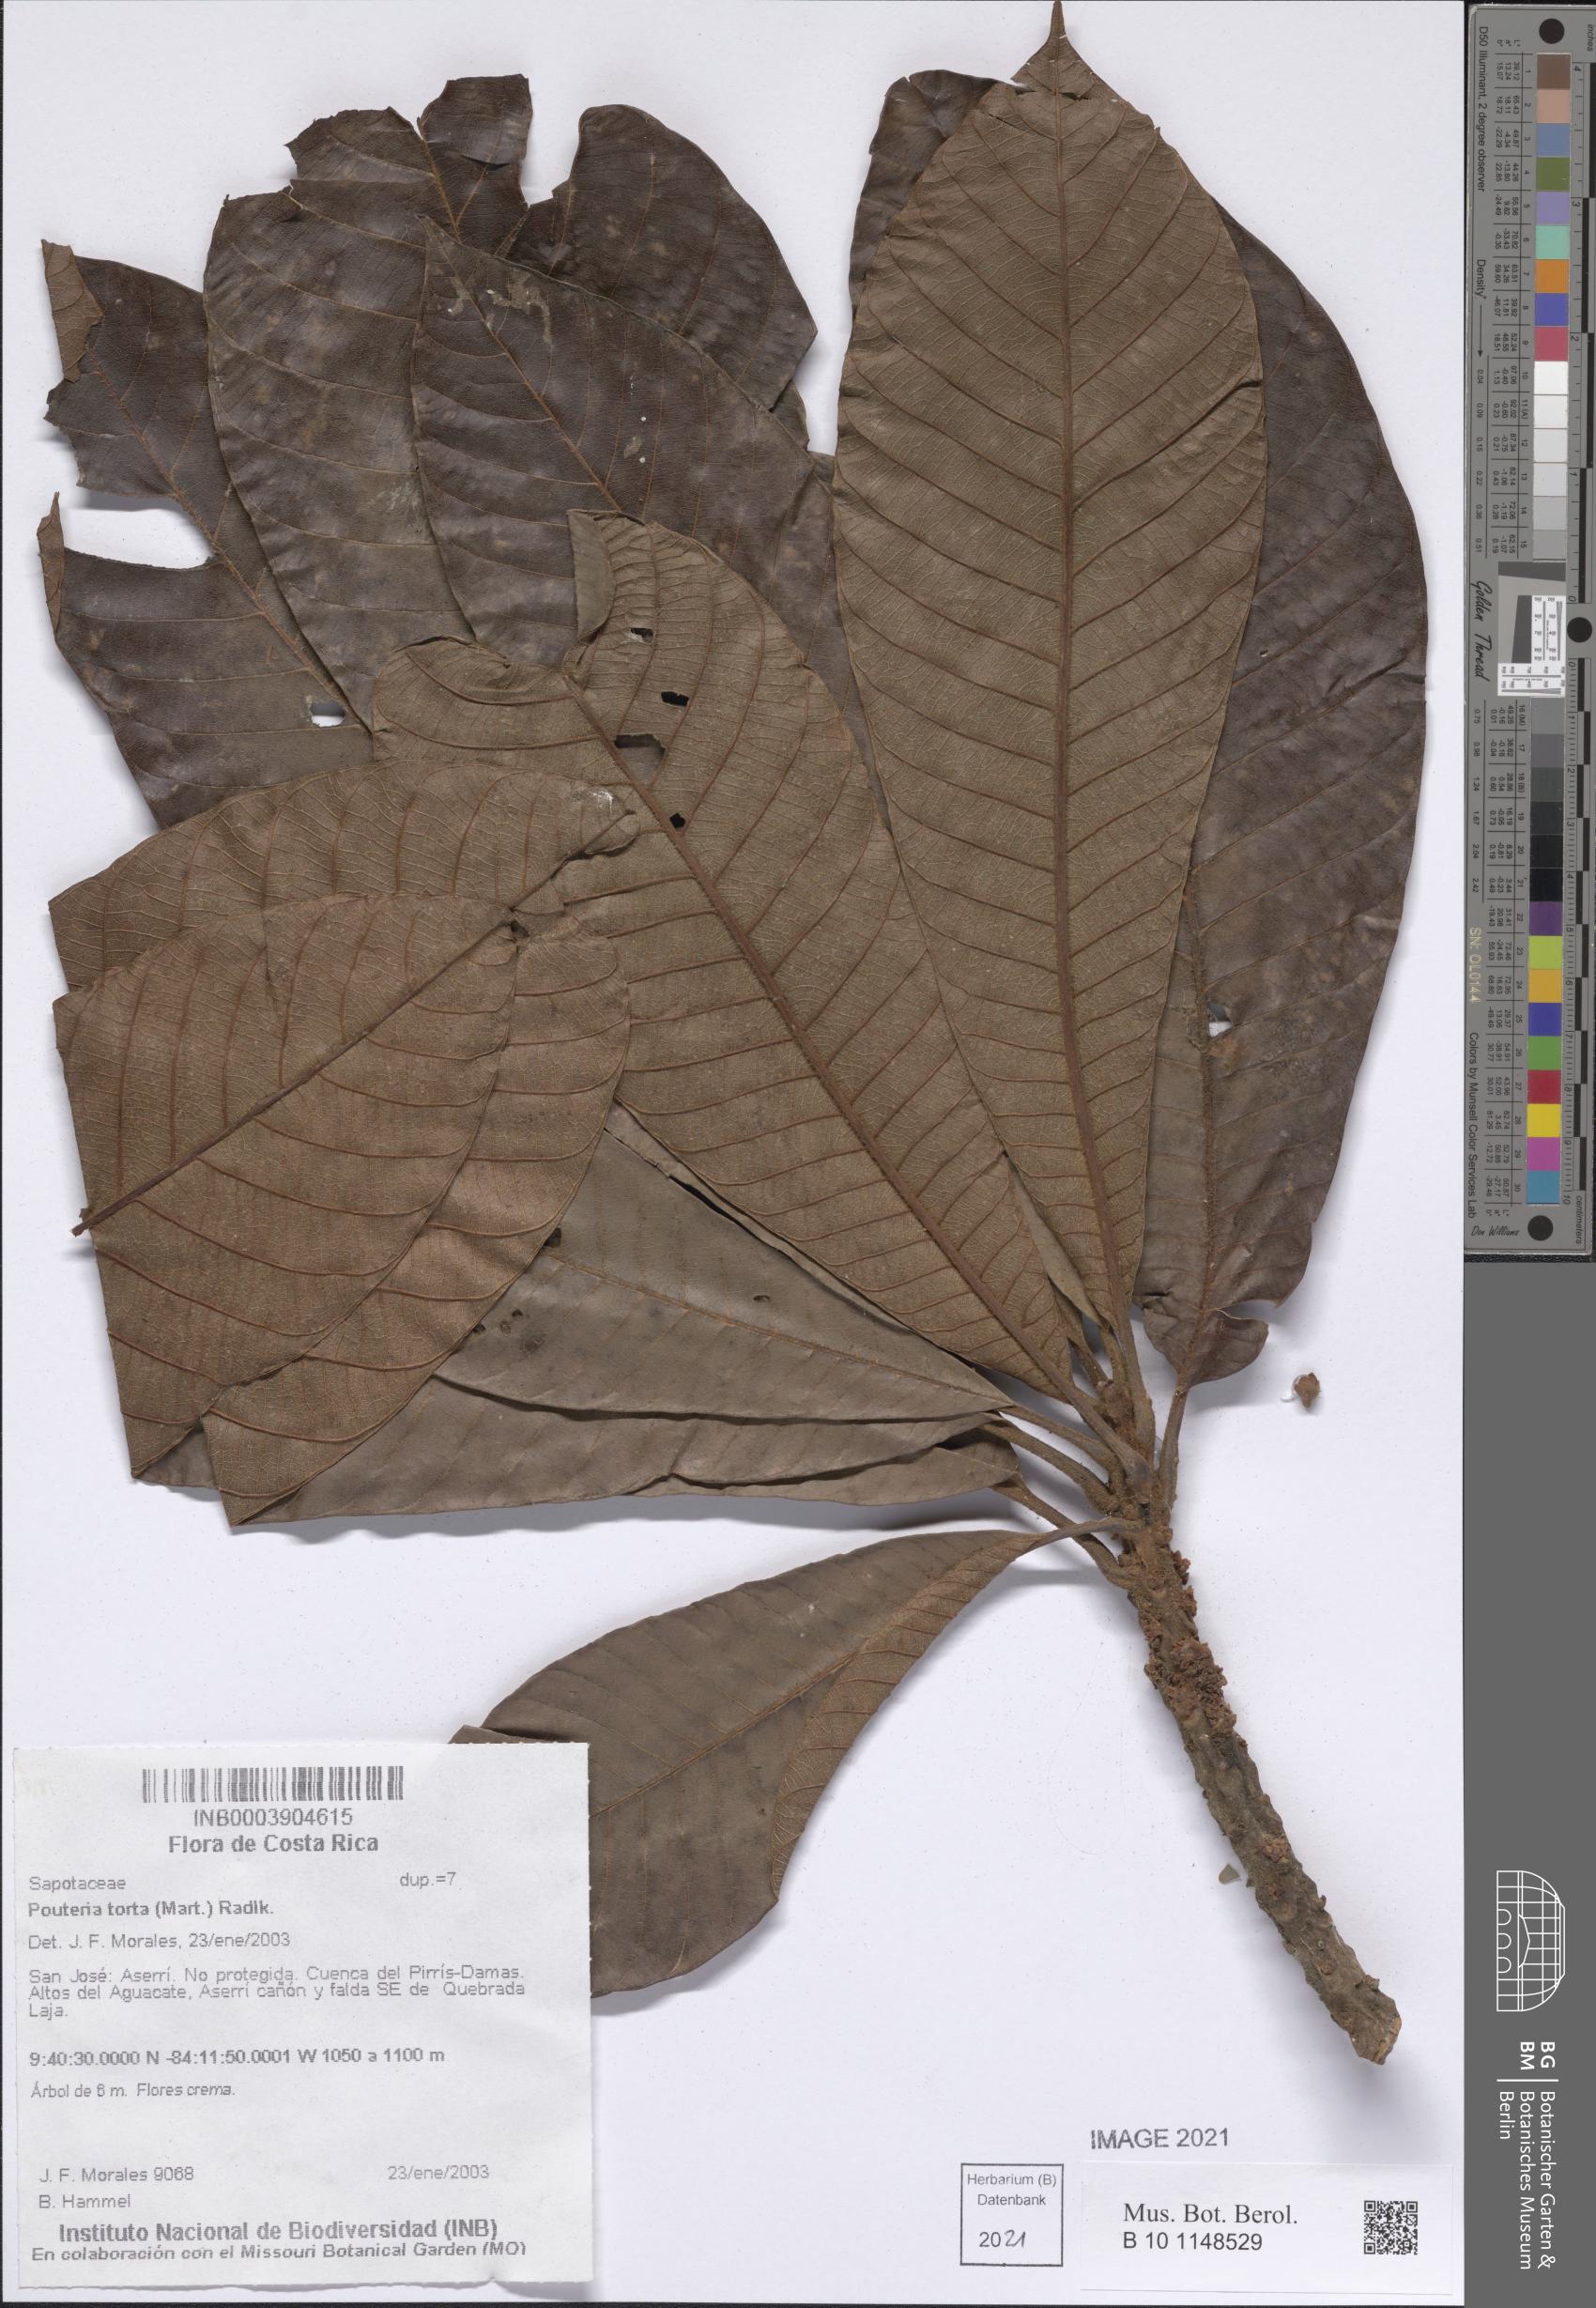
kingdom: Plantae
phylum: Tracheophyta
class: Magnoliopsida
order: Ericales
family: Sapotaceae
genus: Pouteria
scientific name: Pouteria torta
